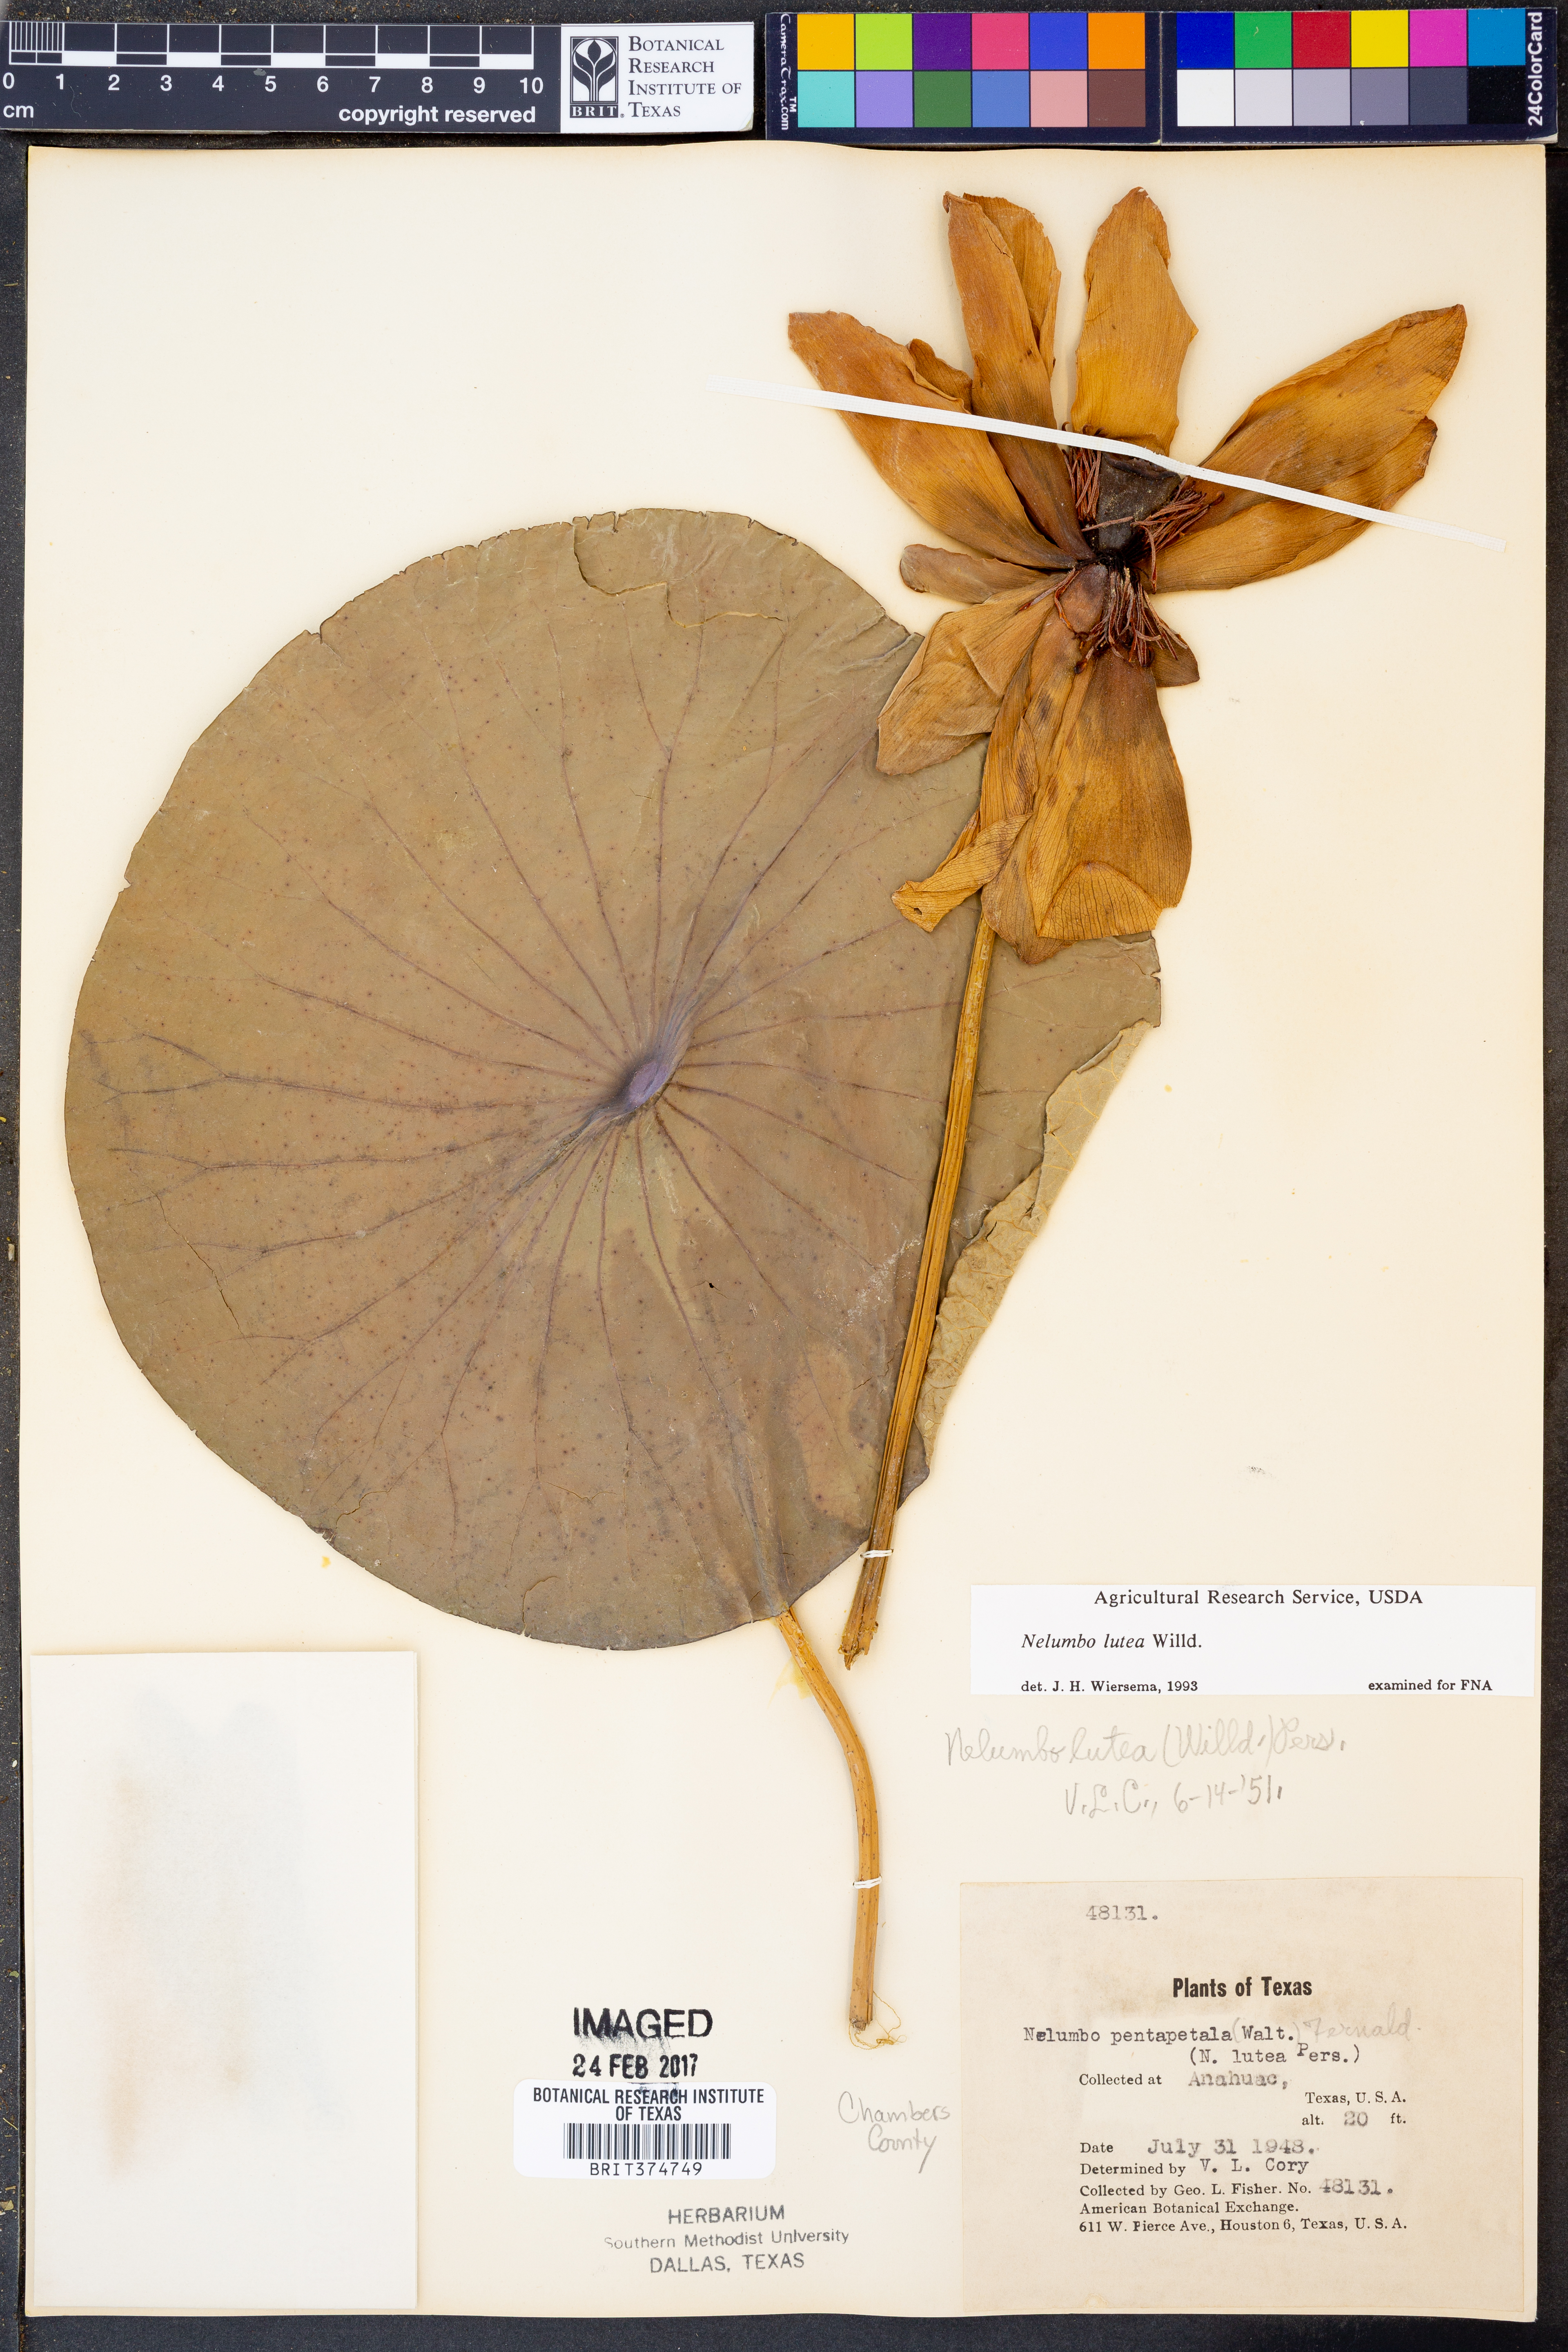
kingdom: Plantae
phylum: Tracheophyta
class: Magnoliopsida
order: Proteales
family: Nelumbonaceae
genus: Nelumbo
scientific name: Nelumbo lutea
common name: American lotus
